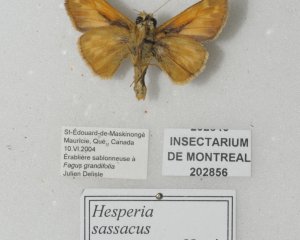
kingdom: Animalia
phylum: Arthropoda
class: Insecta
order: Lepidoptera
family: Hesperiidae
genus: Hesperia
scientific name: Hesperia sassacus
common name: Sassacus Skipper
